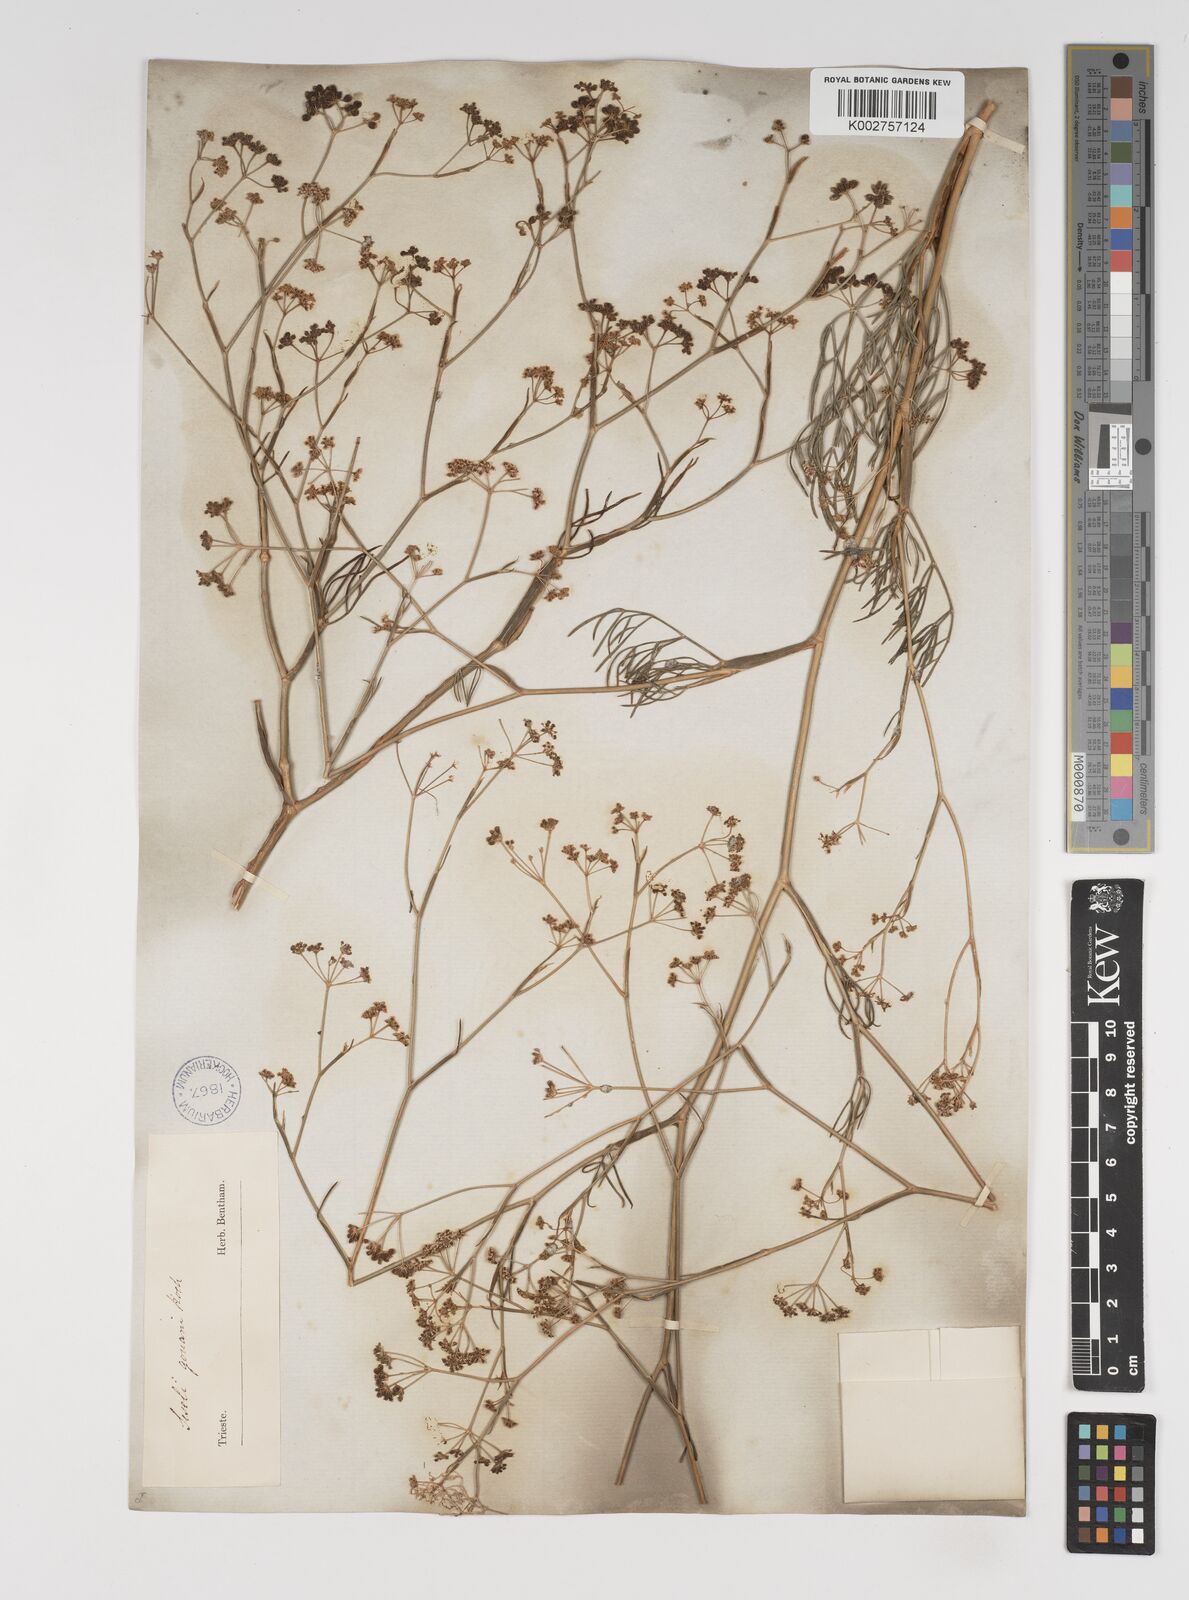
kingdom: Plantae
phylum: Tracheophyta
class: Magnoliopsida
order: Apiales
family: Apiaceae
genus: Seseli
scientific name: Seseli longifolium
